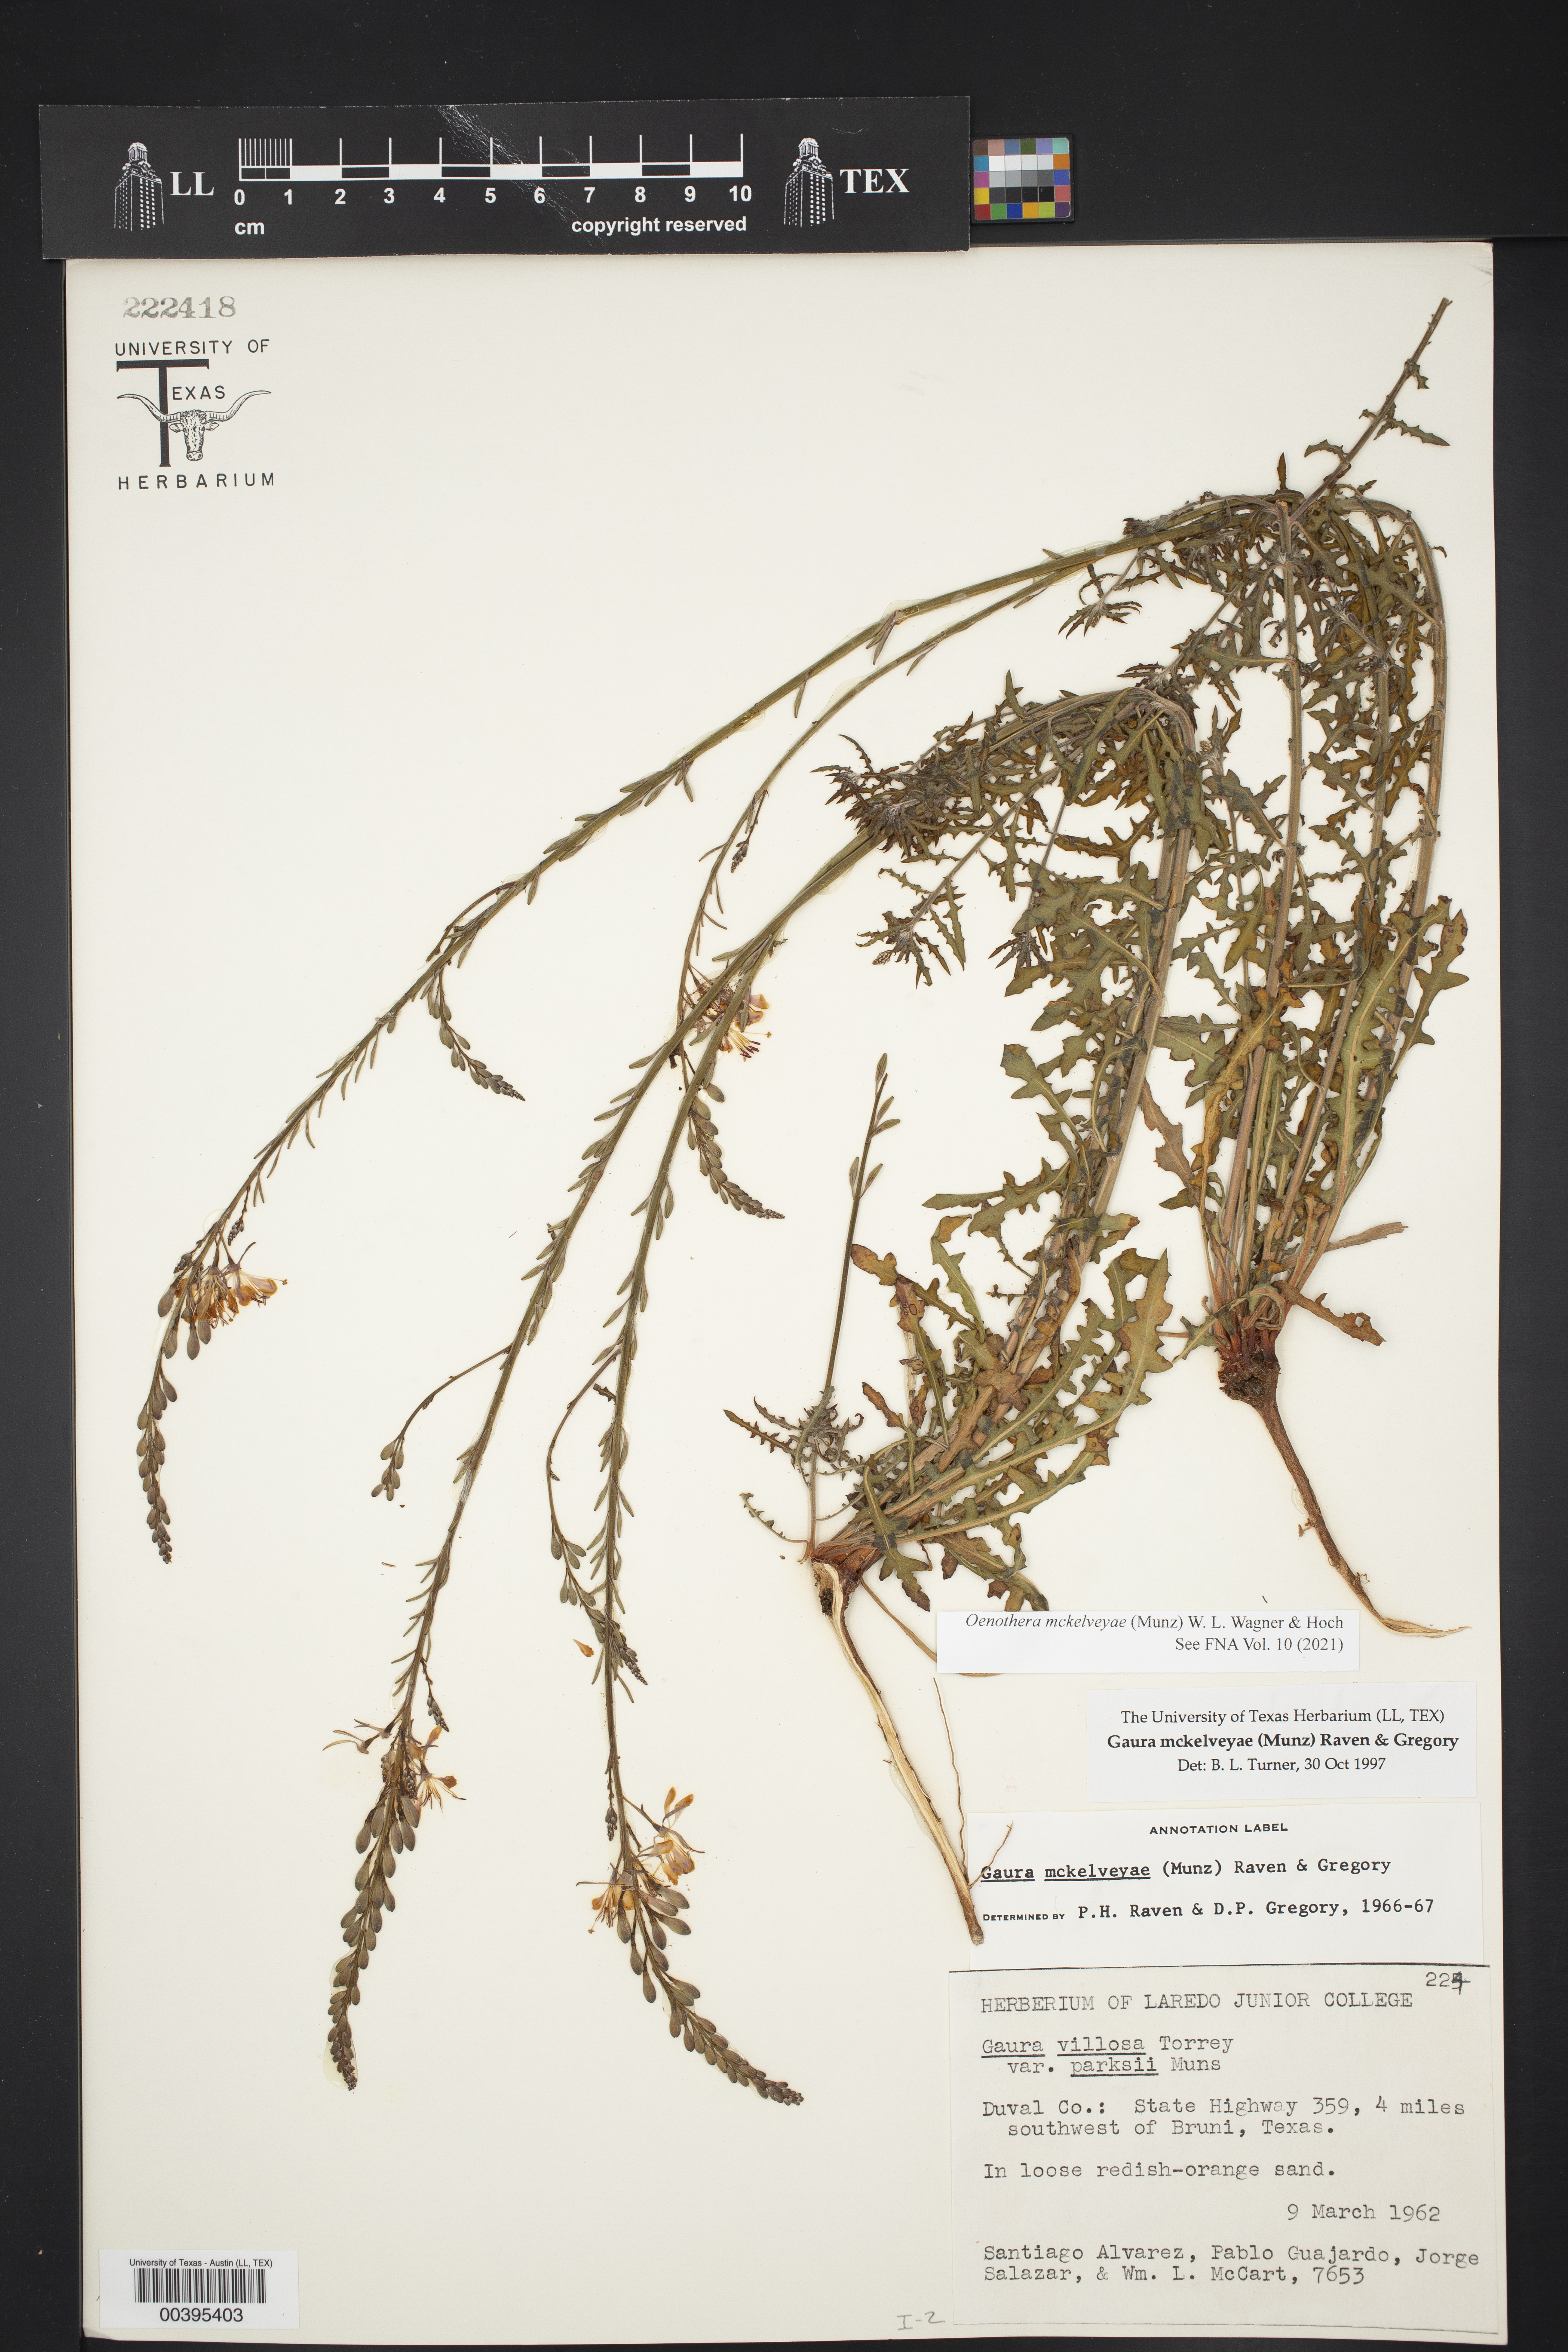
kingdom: Plantae
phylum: Tracheophyta
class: Magnoliopsida
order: Myrtales
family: Onagraceae
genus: Oenothera
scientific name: Oenothera mckelveyae
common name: Mckelvey's beeblossom
